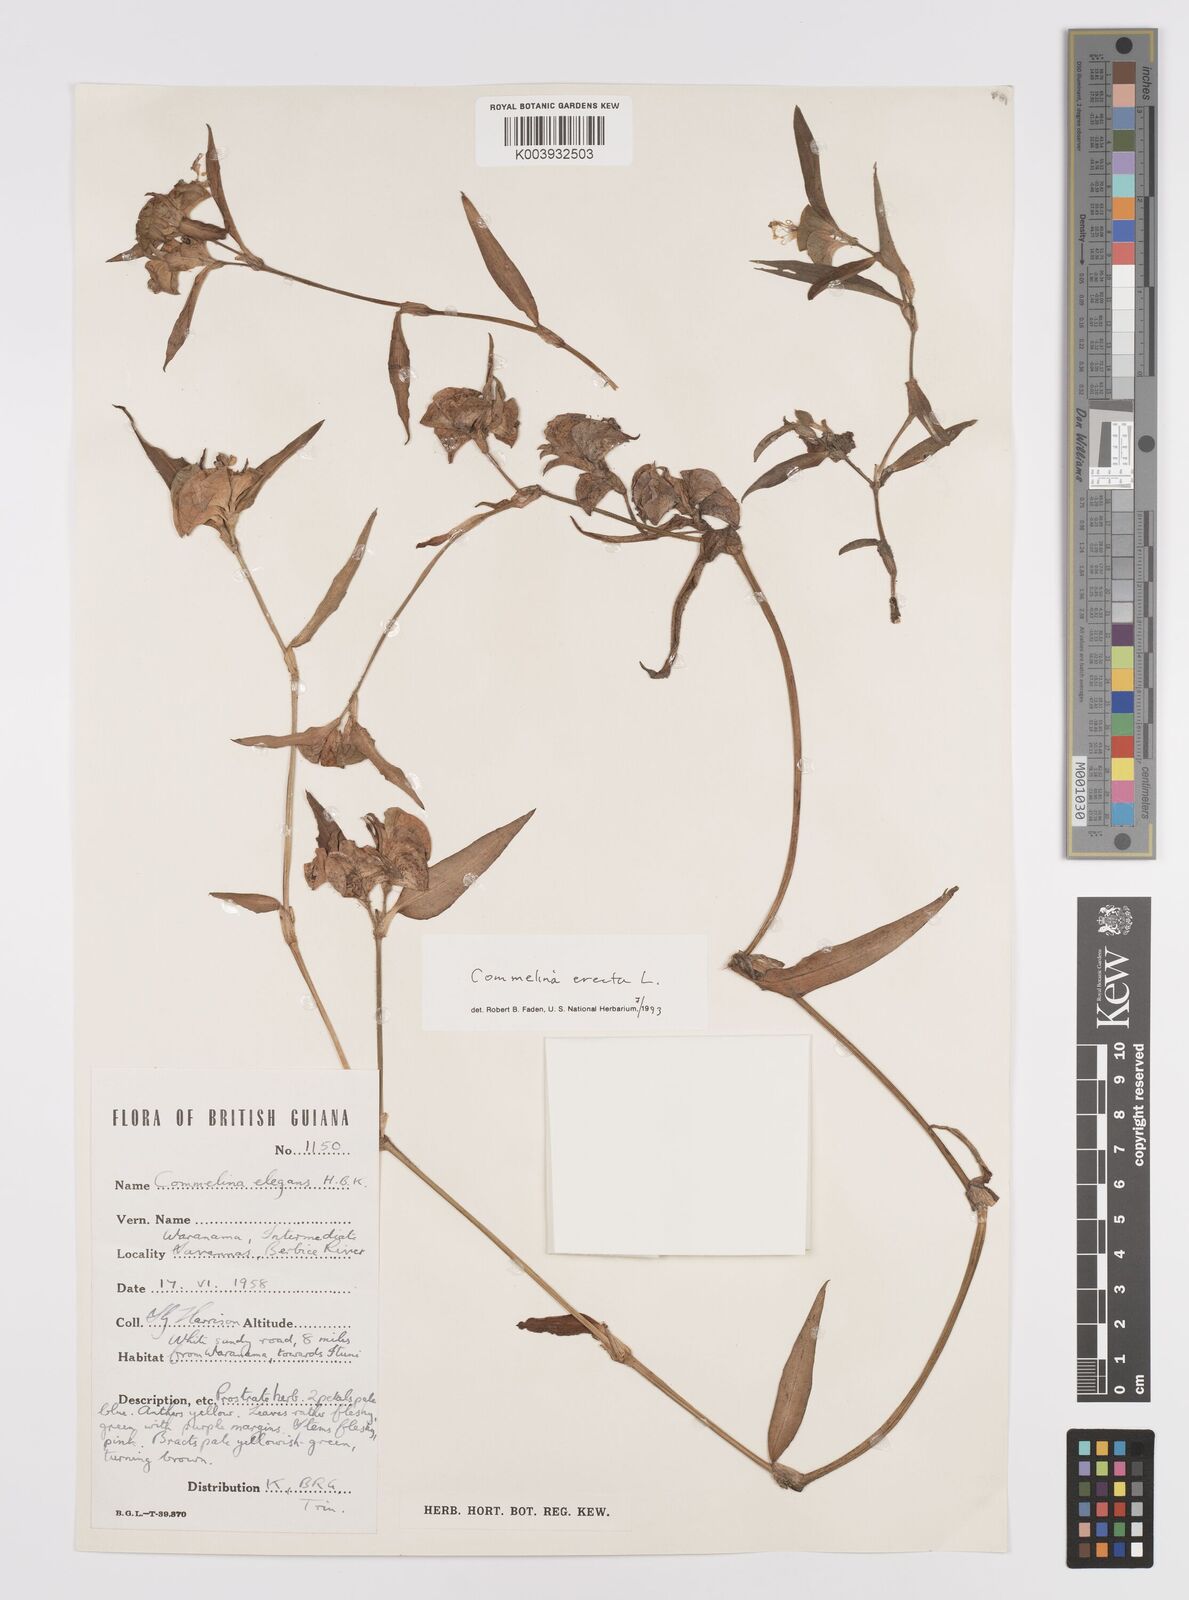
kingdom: Plantae
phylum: Tracheophyta
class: Liliopsida
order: Commelinales
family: Commelinaceae
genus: Commelina
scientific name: Commelina erecta
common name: Blousel blommetjie
